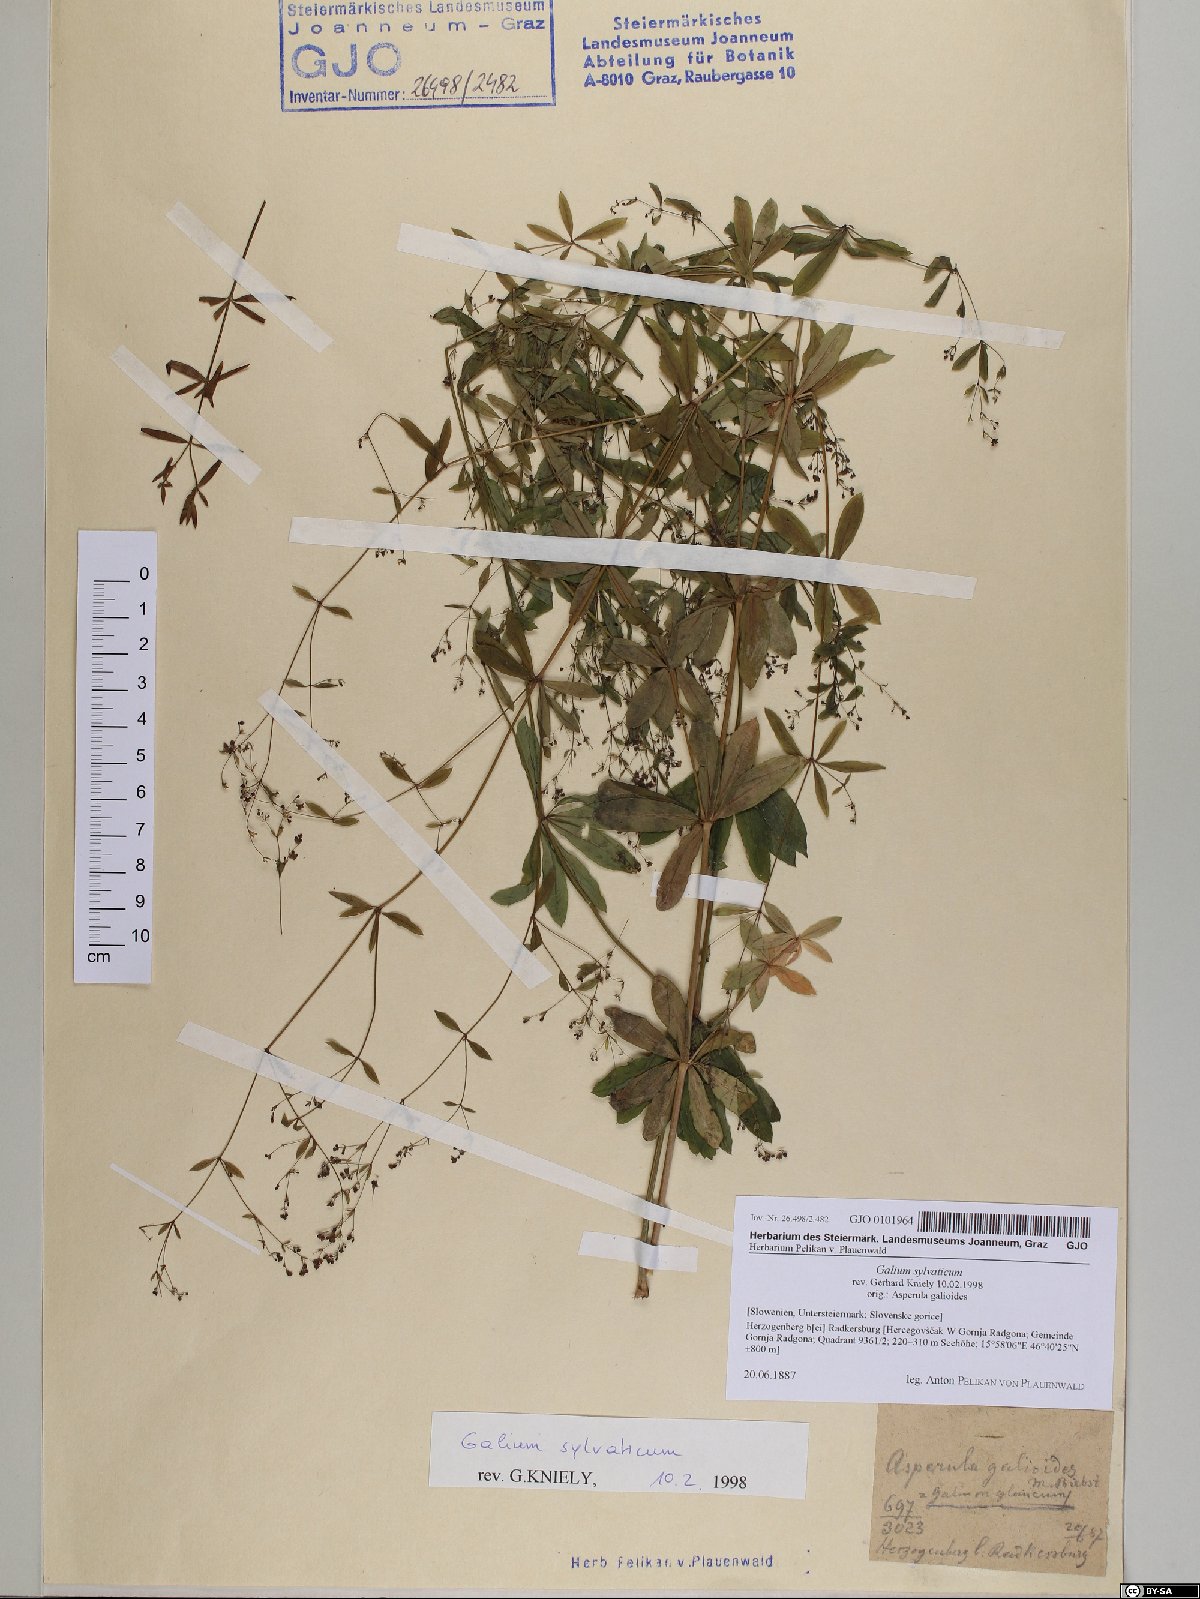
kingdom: Plantae
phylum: Tracheophyta
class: Magnoliopsida
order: Gentianales
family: Rubiaceae
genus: Galium
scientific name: Galium sylvaticum
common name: Wood bedstraw
